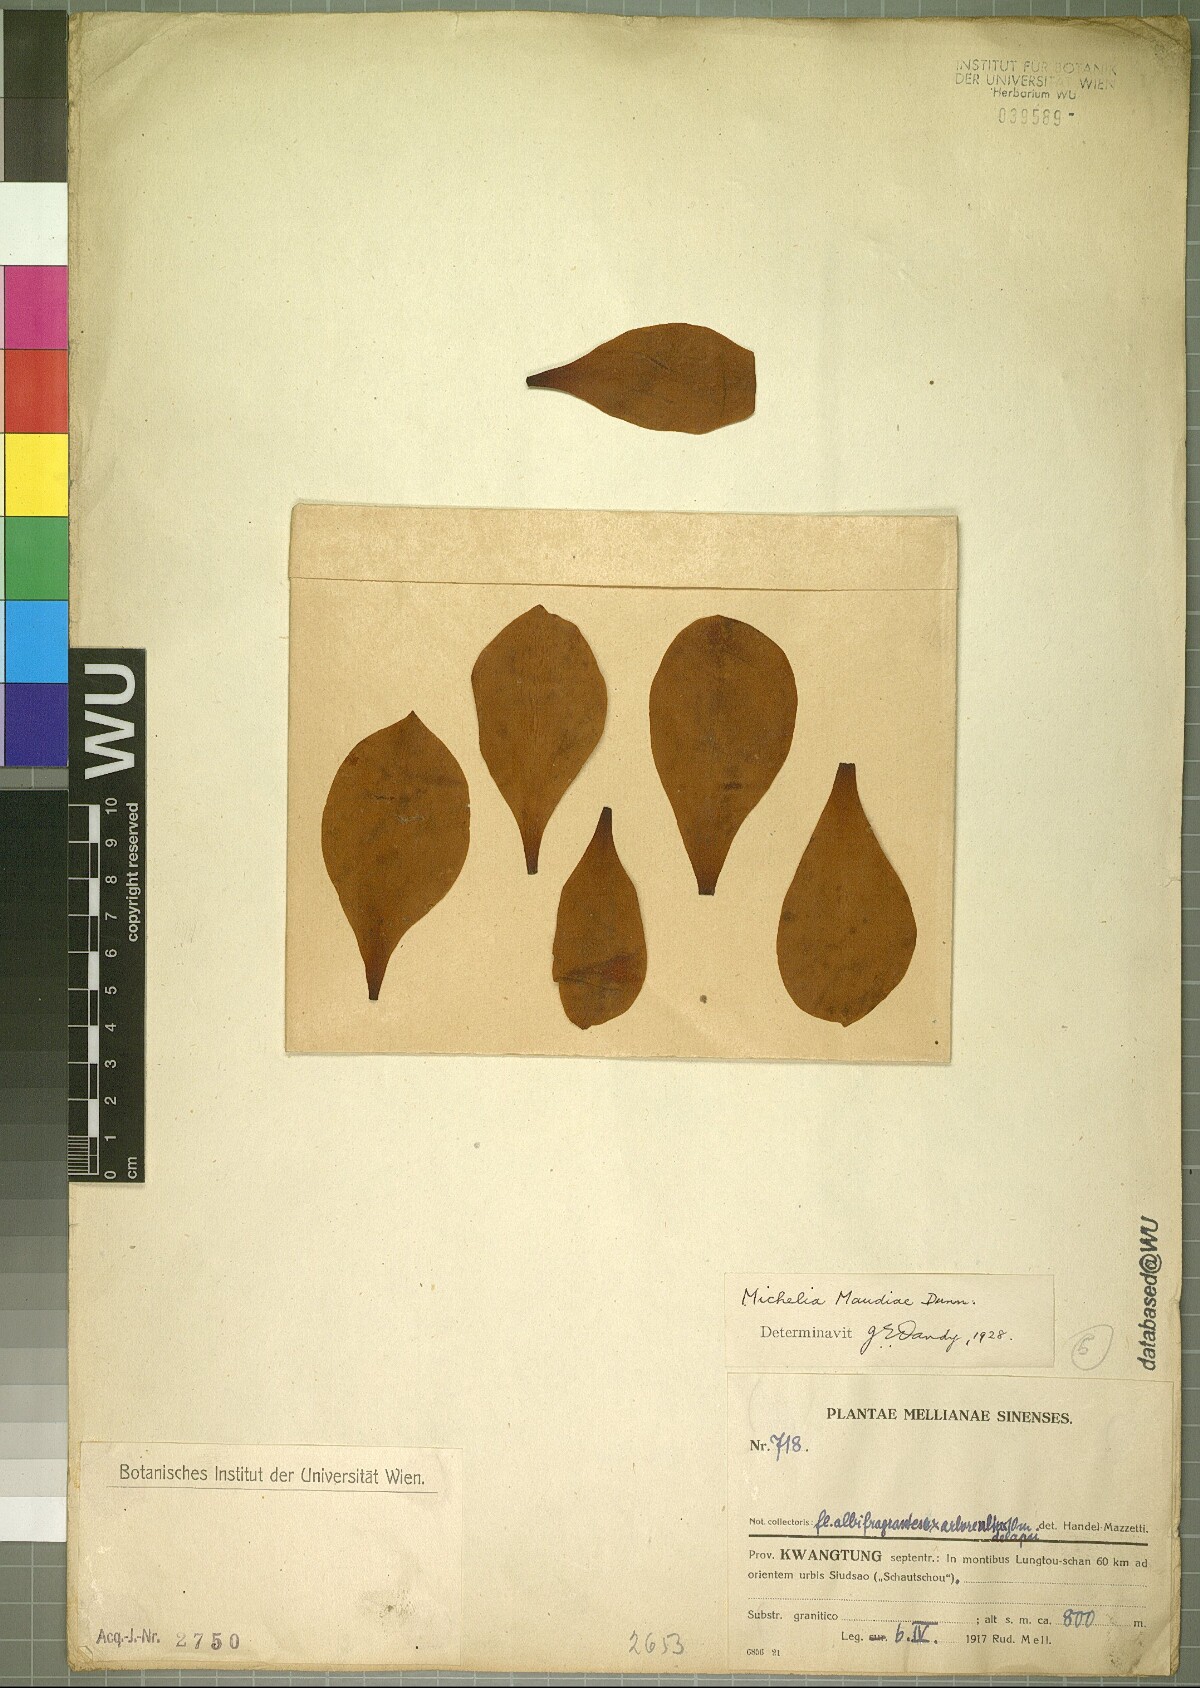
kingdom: Plantae
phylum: Tracheophyta
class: Magnoliopsida
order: Magnoliales
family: Magnoliaceae
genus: Magnolia
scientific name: Magnolia maudiae
